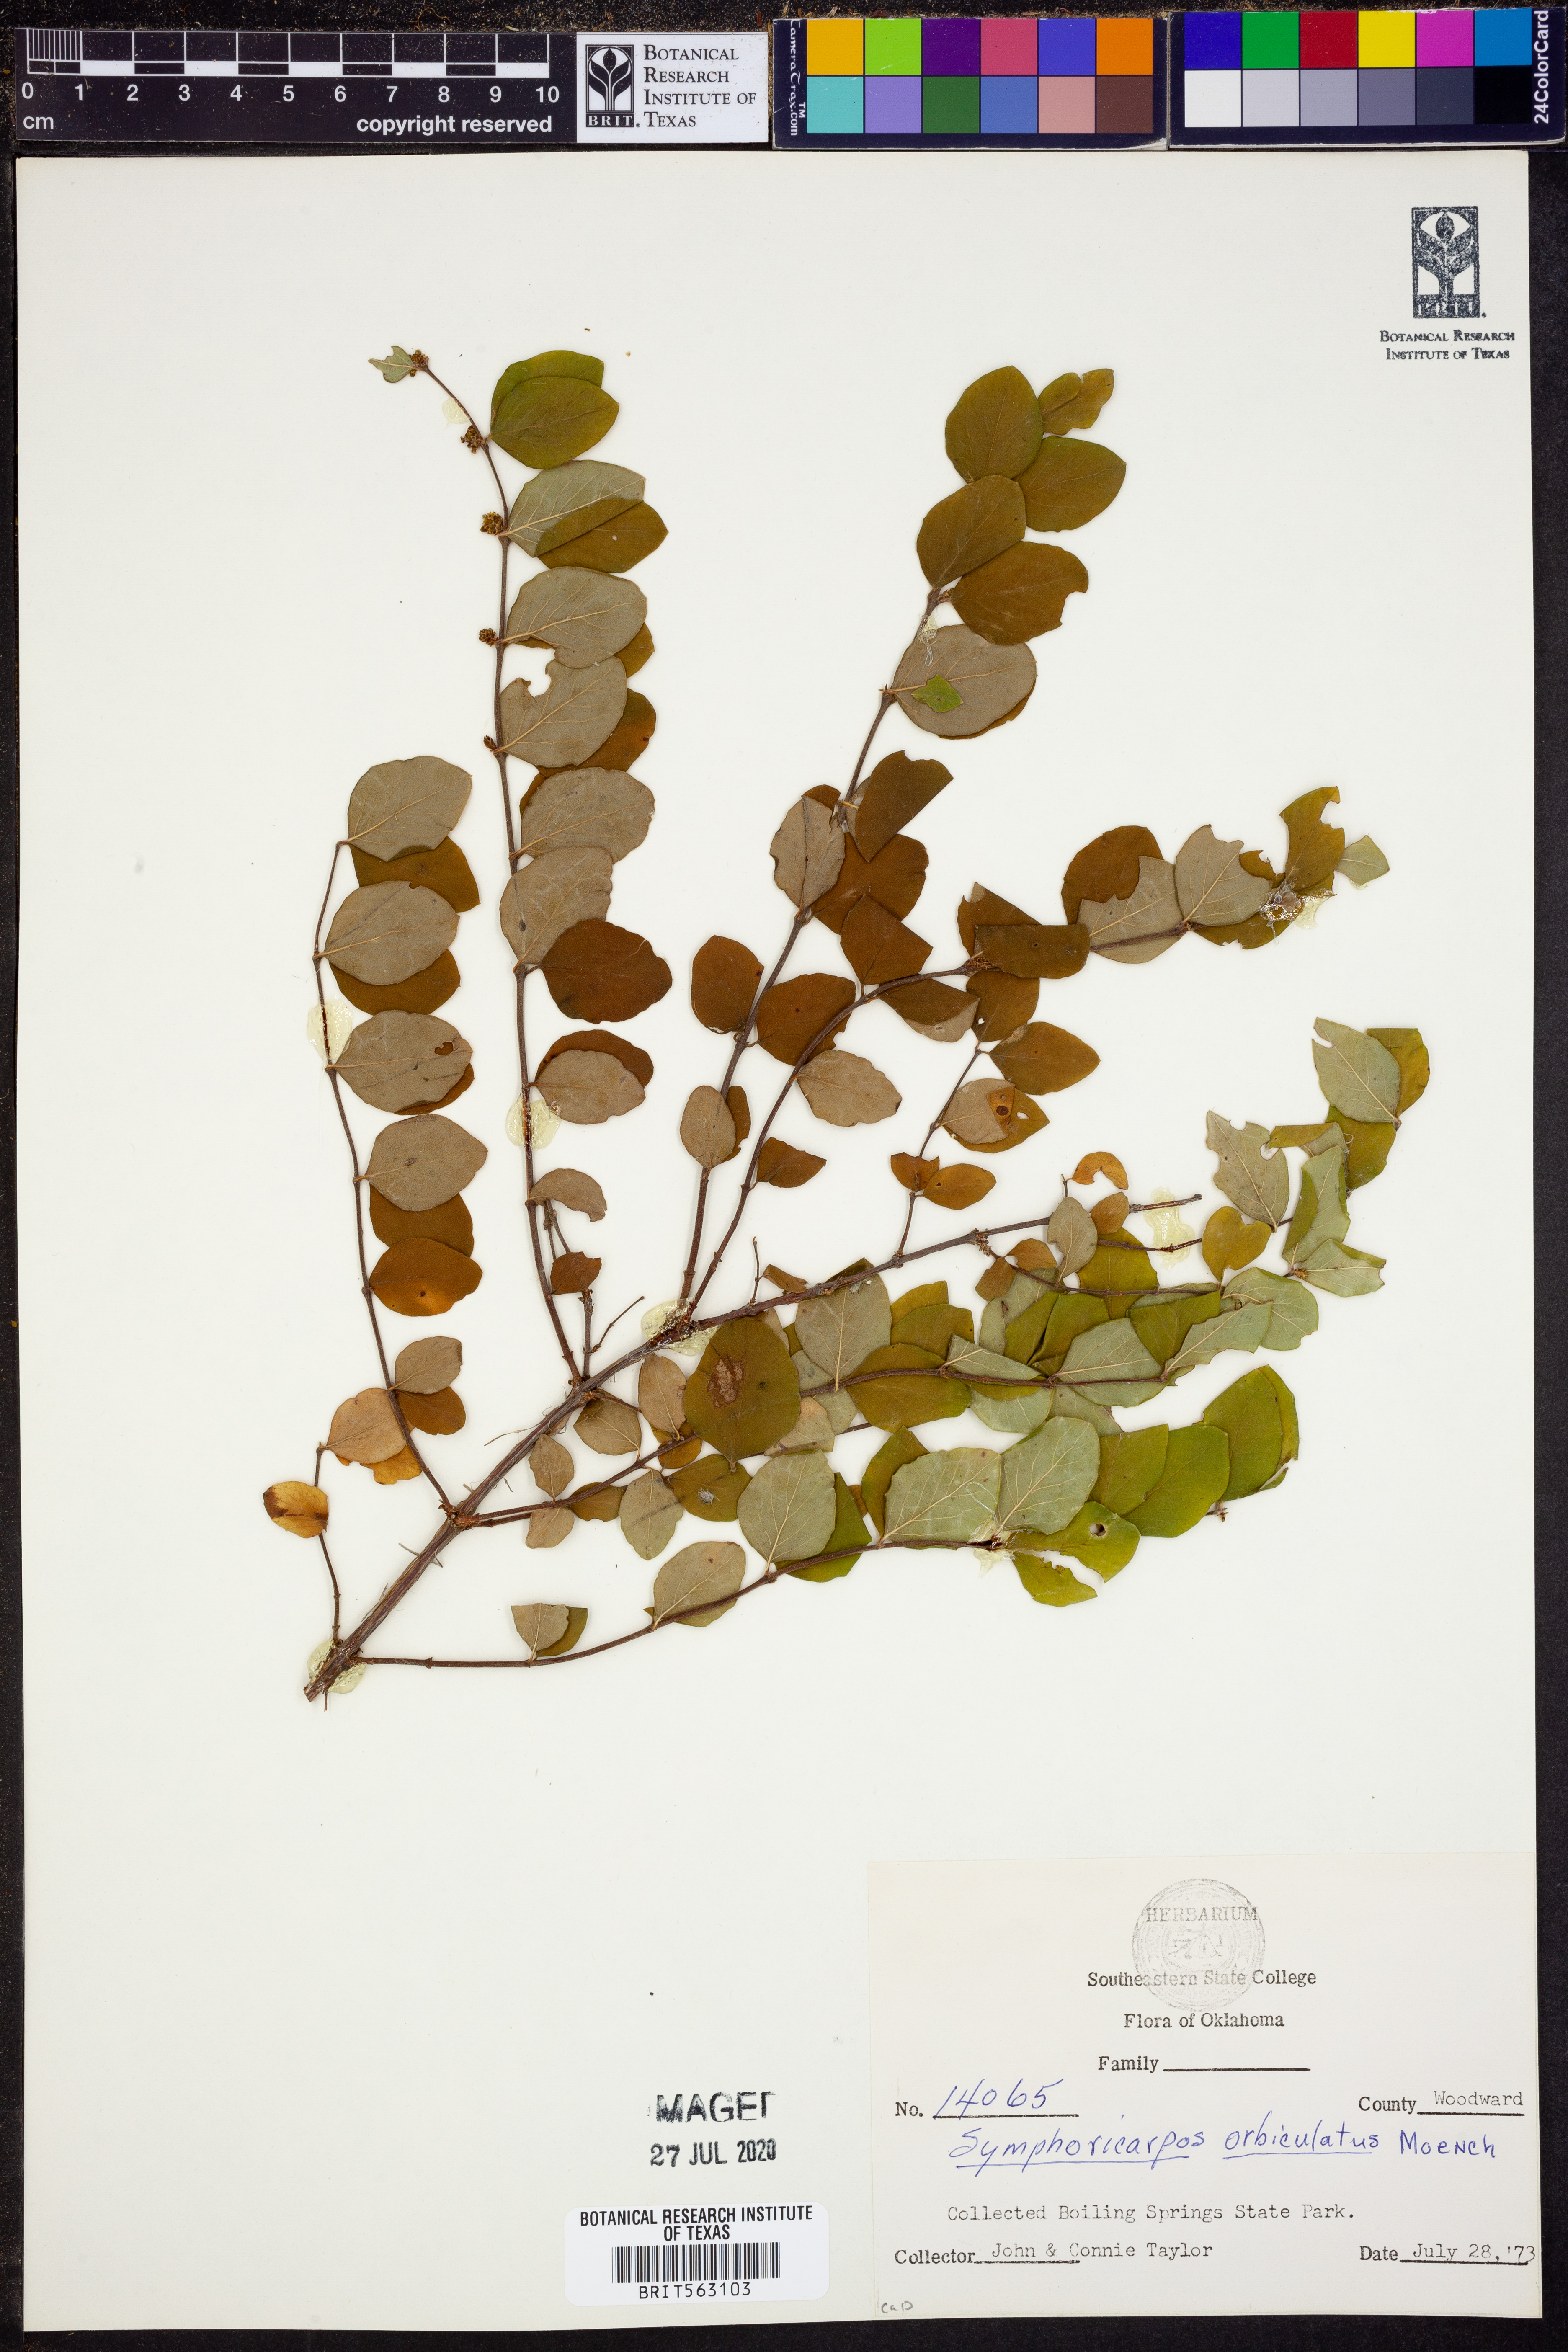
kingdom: Plantae
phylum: Tracheophyta
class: Magnoliopsida
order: Dipsacales
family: Caprifoliaceae
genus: Symphoricarpos
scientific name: Symphoricarpos orbiculatus
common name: Coralberry
